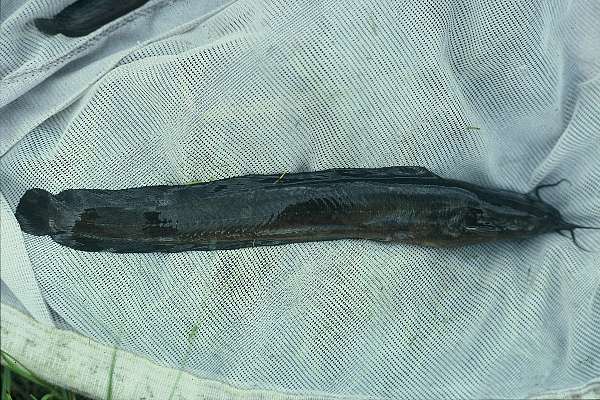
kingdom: Animalia
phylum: Chordata
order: Siluriformes
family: Clariidae
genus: Clarias
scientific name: Clarias theodorae
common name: Snake catfish
